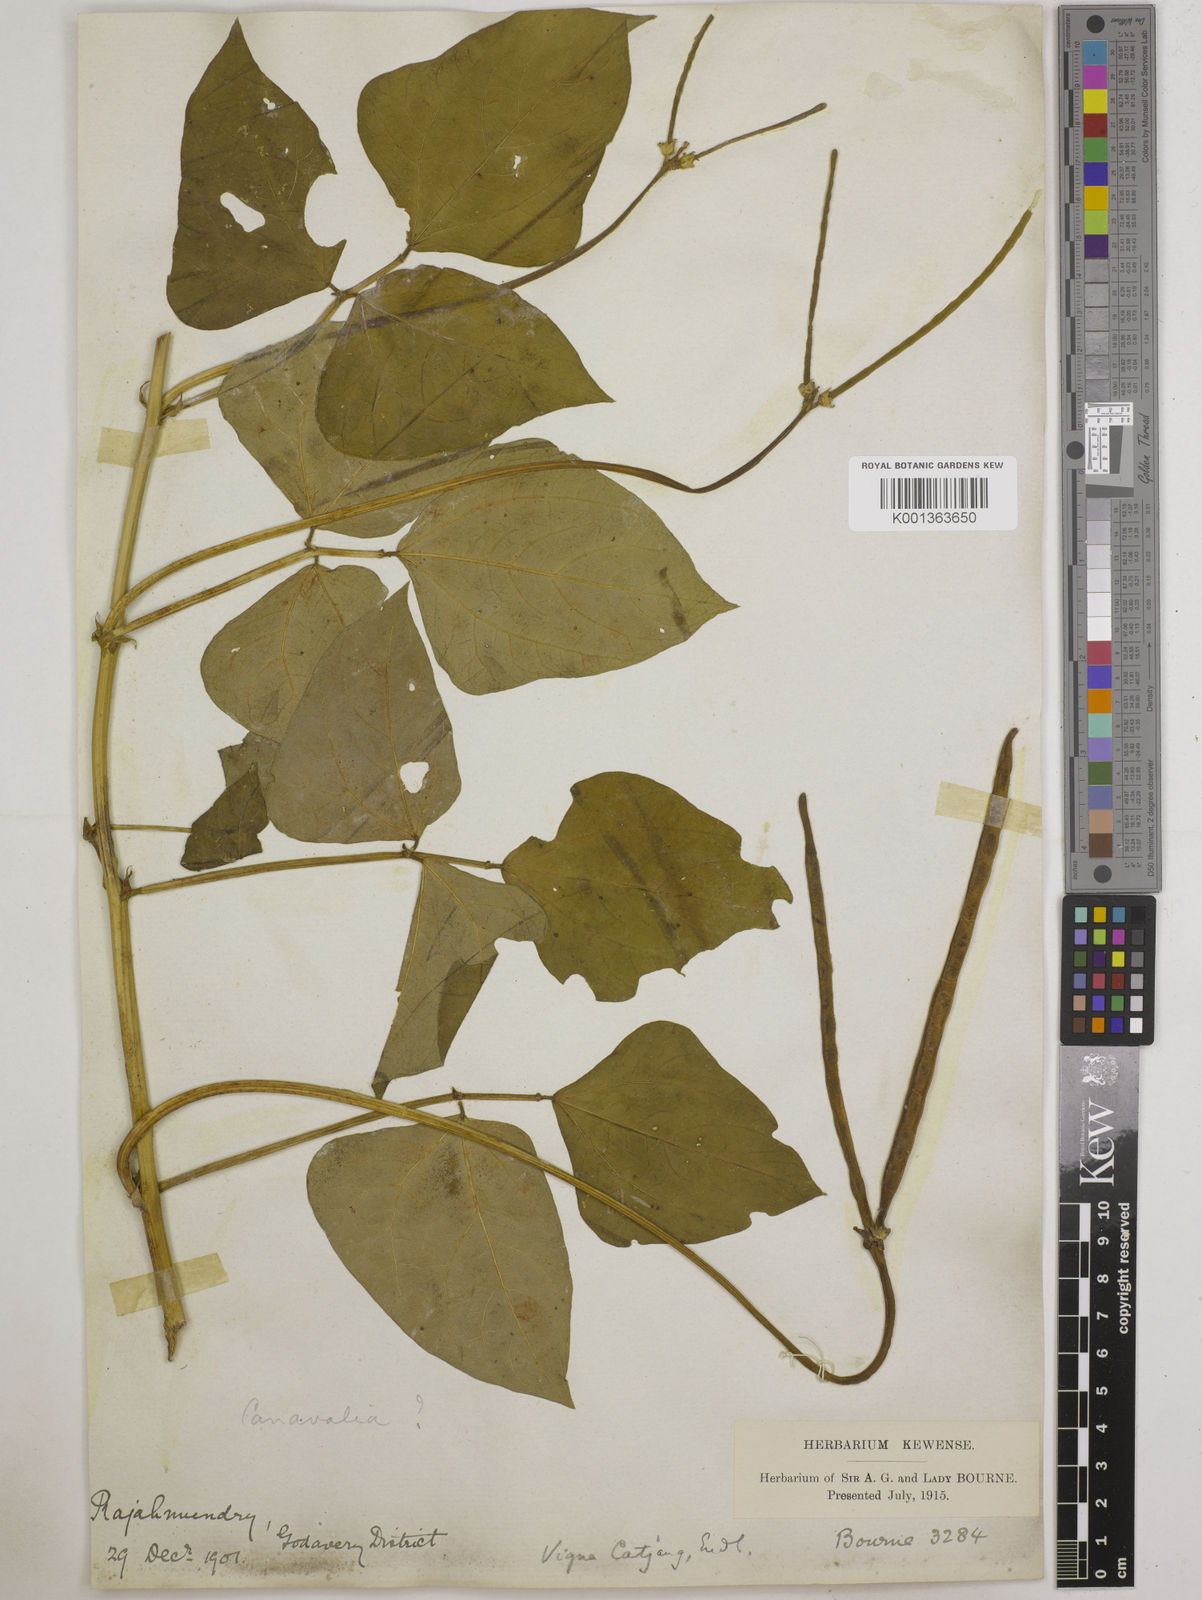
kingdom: Plantae
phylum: Tracheophyta
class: Magnoliopsida
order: Fabales
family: Fabaceae
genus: Vigna
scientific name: Vigna unguiculata
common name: Cowpea
